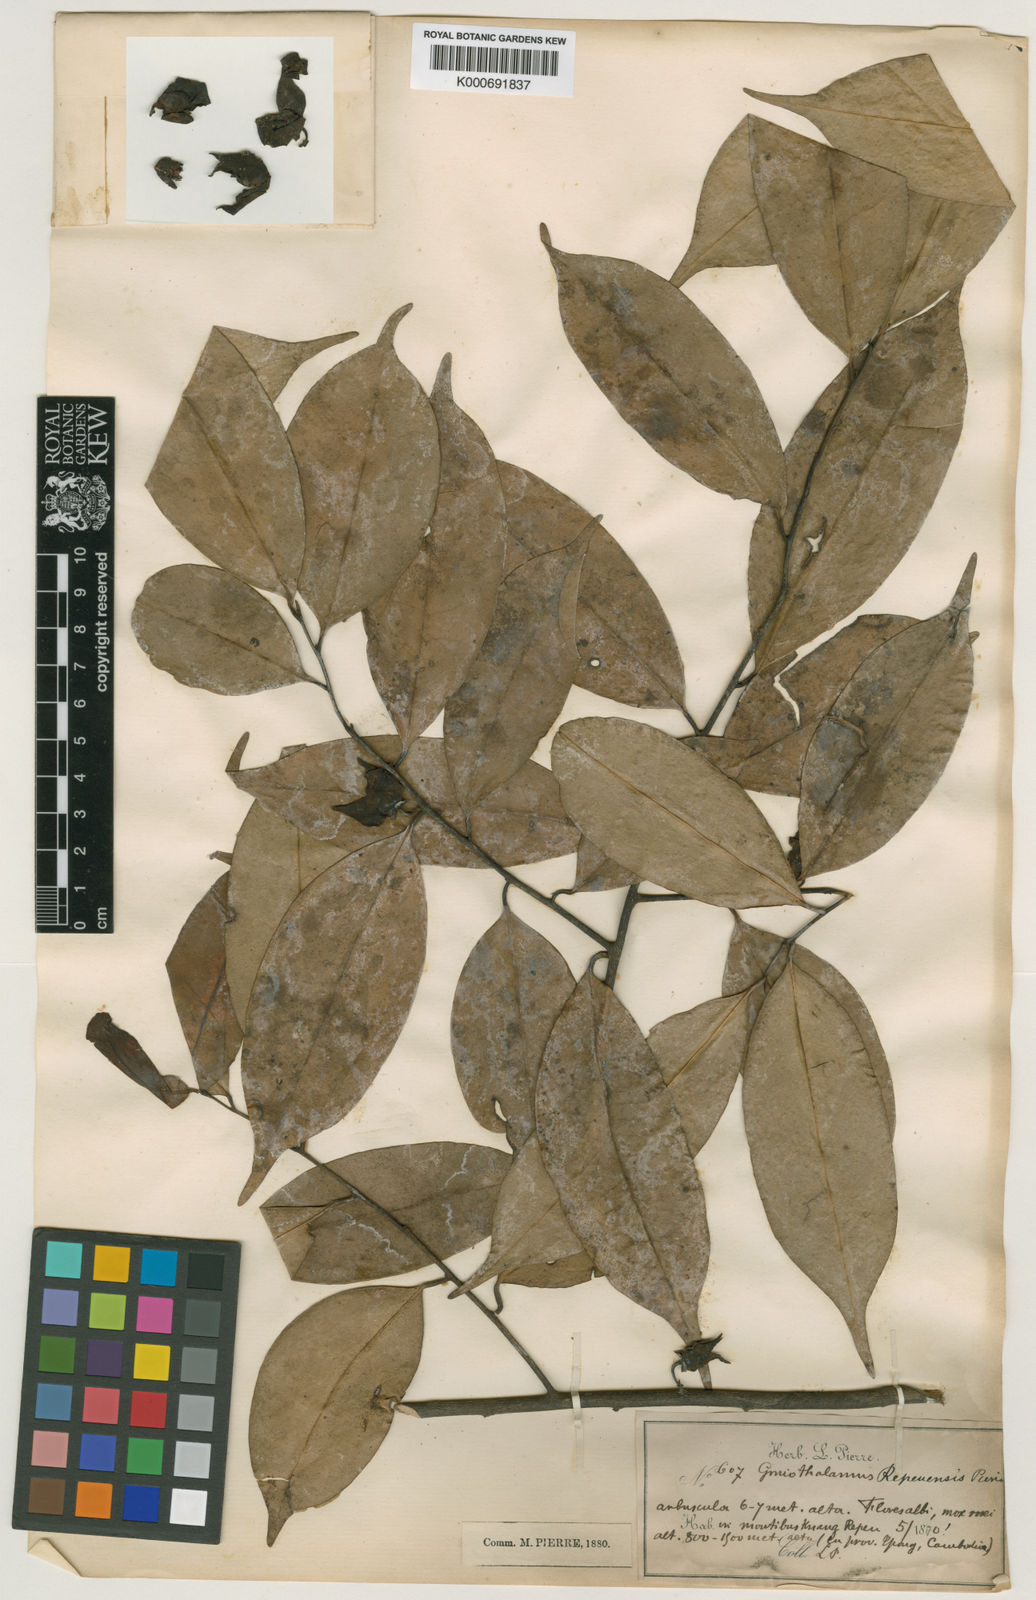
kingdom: Plantae
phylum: Tracheophyta
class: Magnoliopsida
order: Magnoliales
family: Annonaceae
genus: Goniothalamus
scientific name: Goniothalamus repevensis
